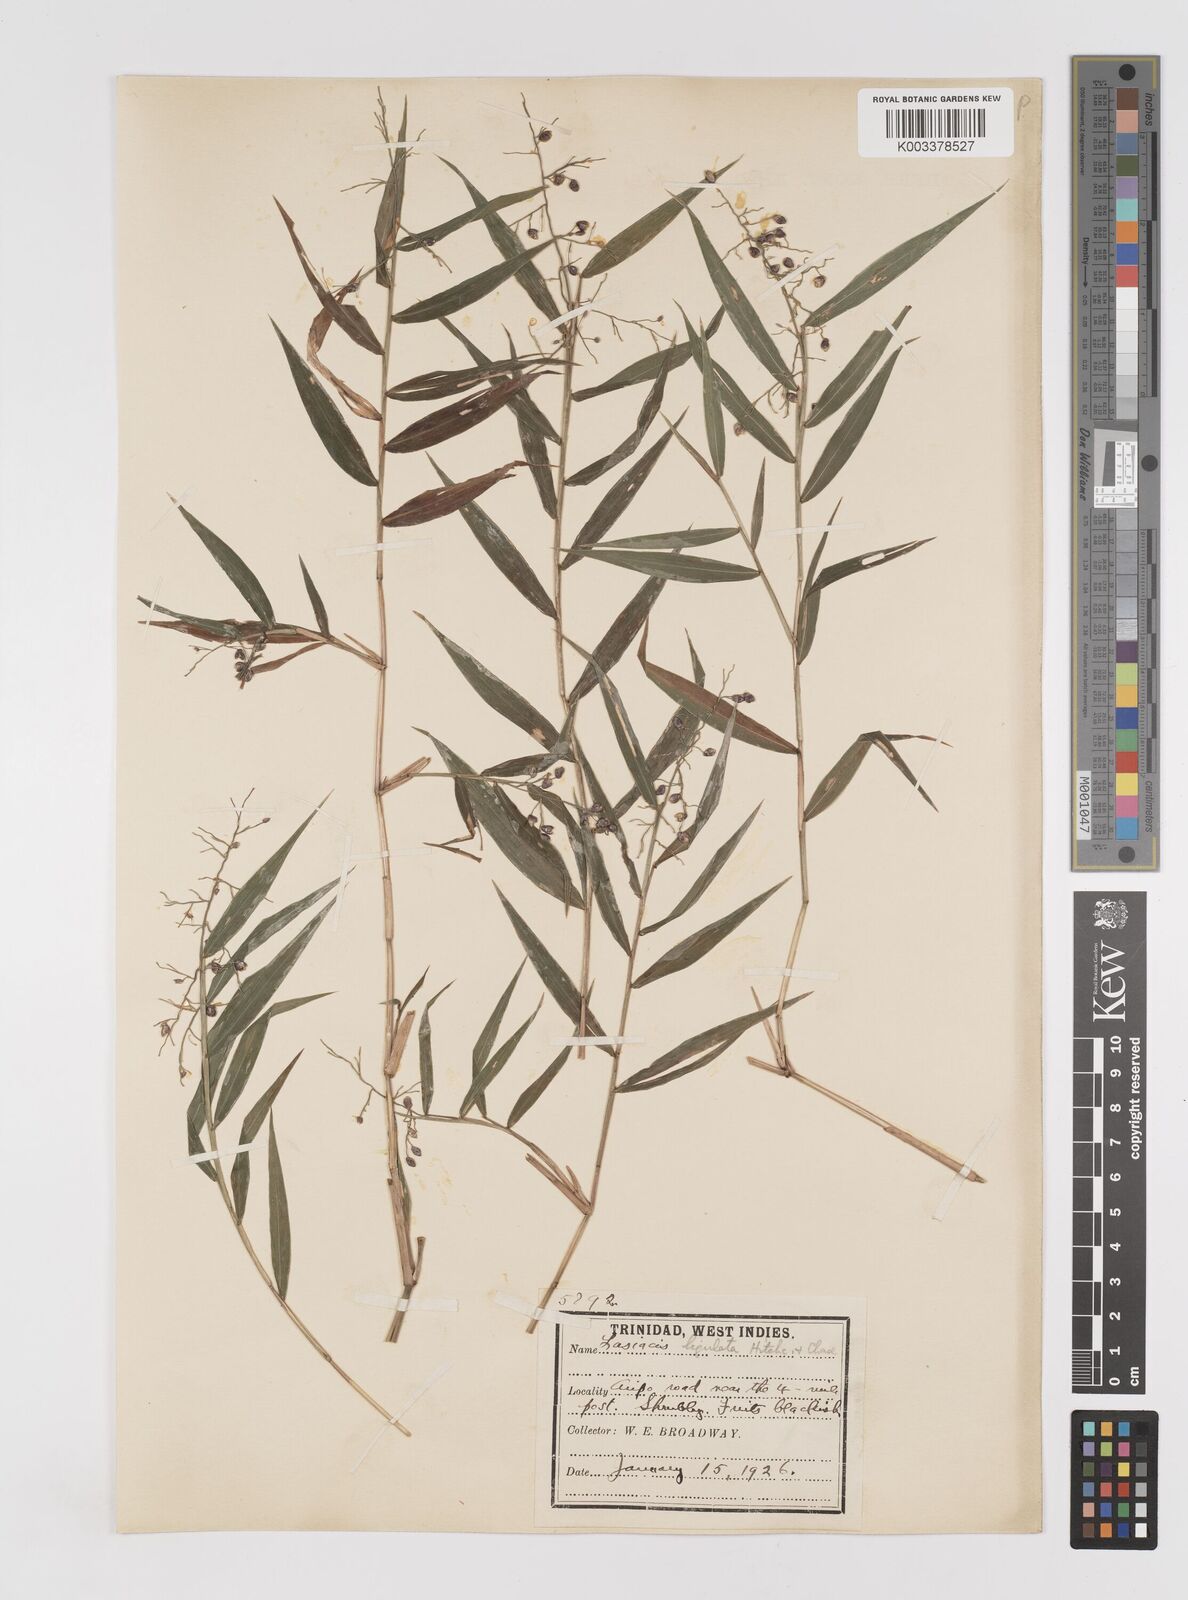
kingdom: Plantae
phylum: Tracheophyta
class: Liliopsida
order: Poales
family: Poaceae
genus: Lasiacis
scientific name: Lasiacis ligulata
